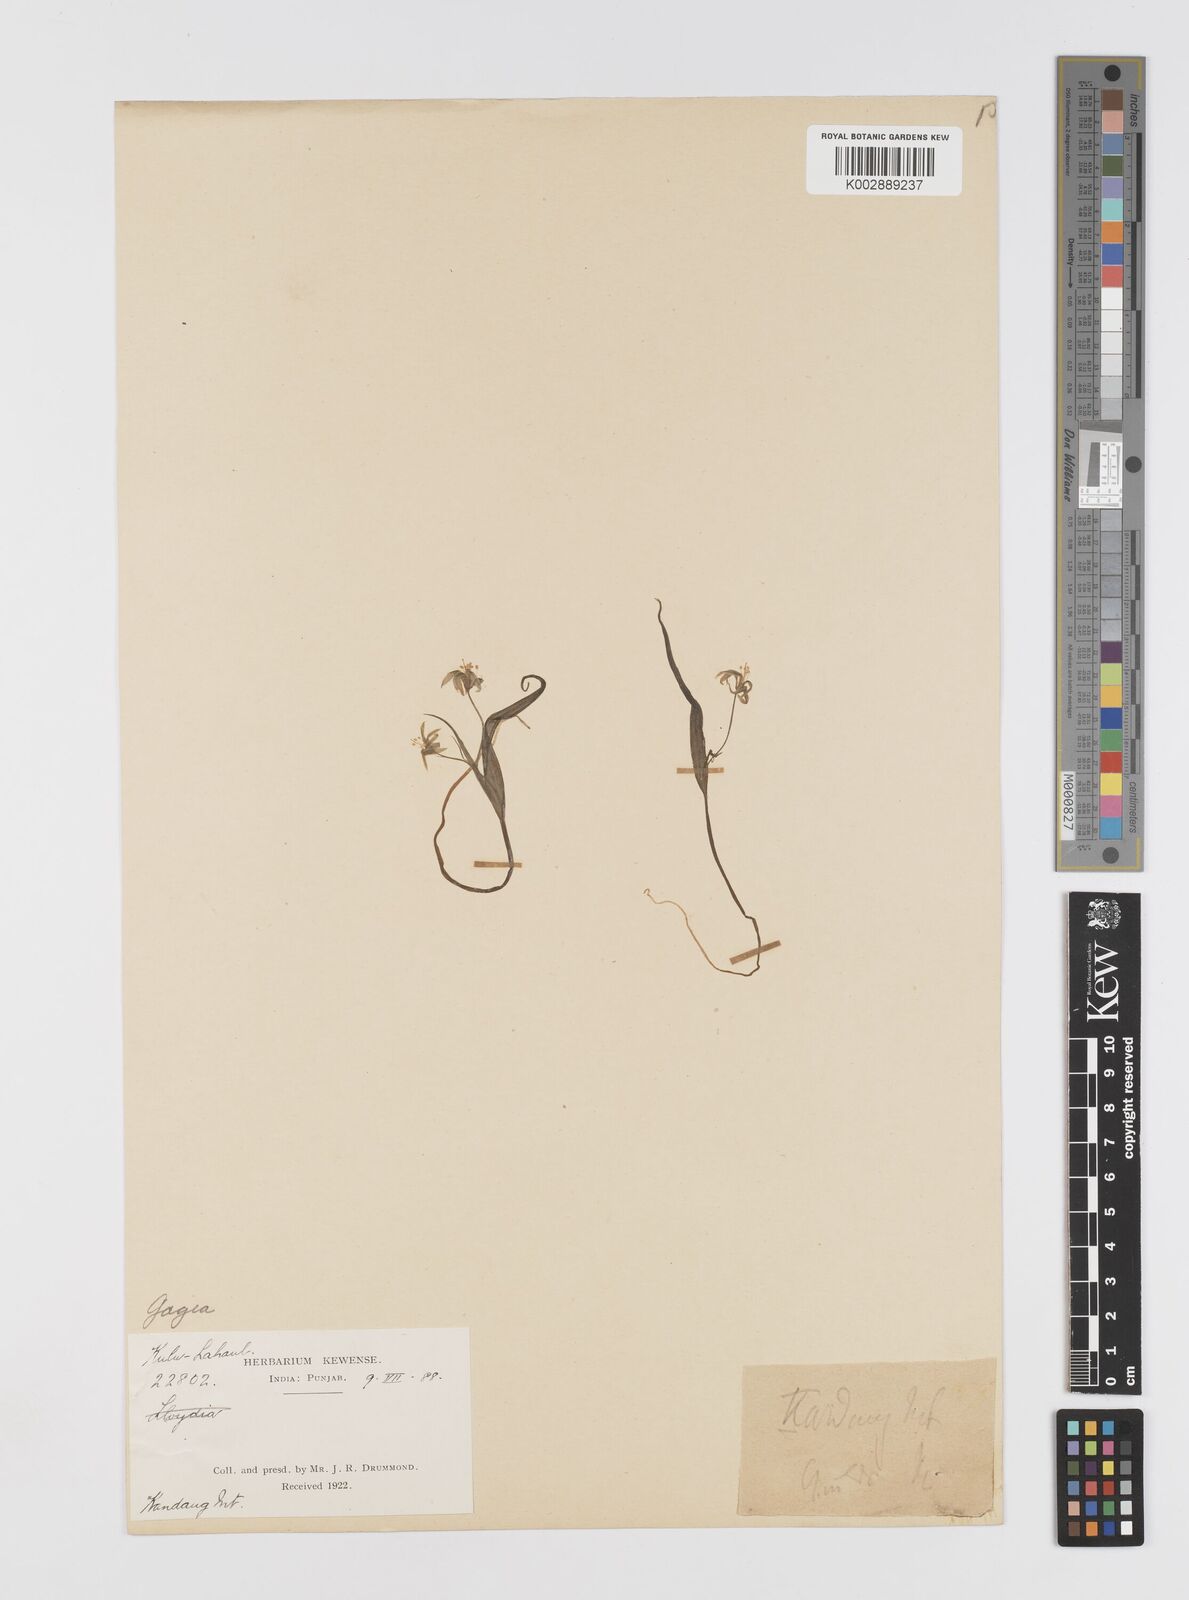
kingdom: Plantae
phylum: Tracheophyta
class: Liliopsida
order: Liliales
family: Liliaceae
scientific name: Liliaceae
